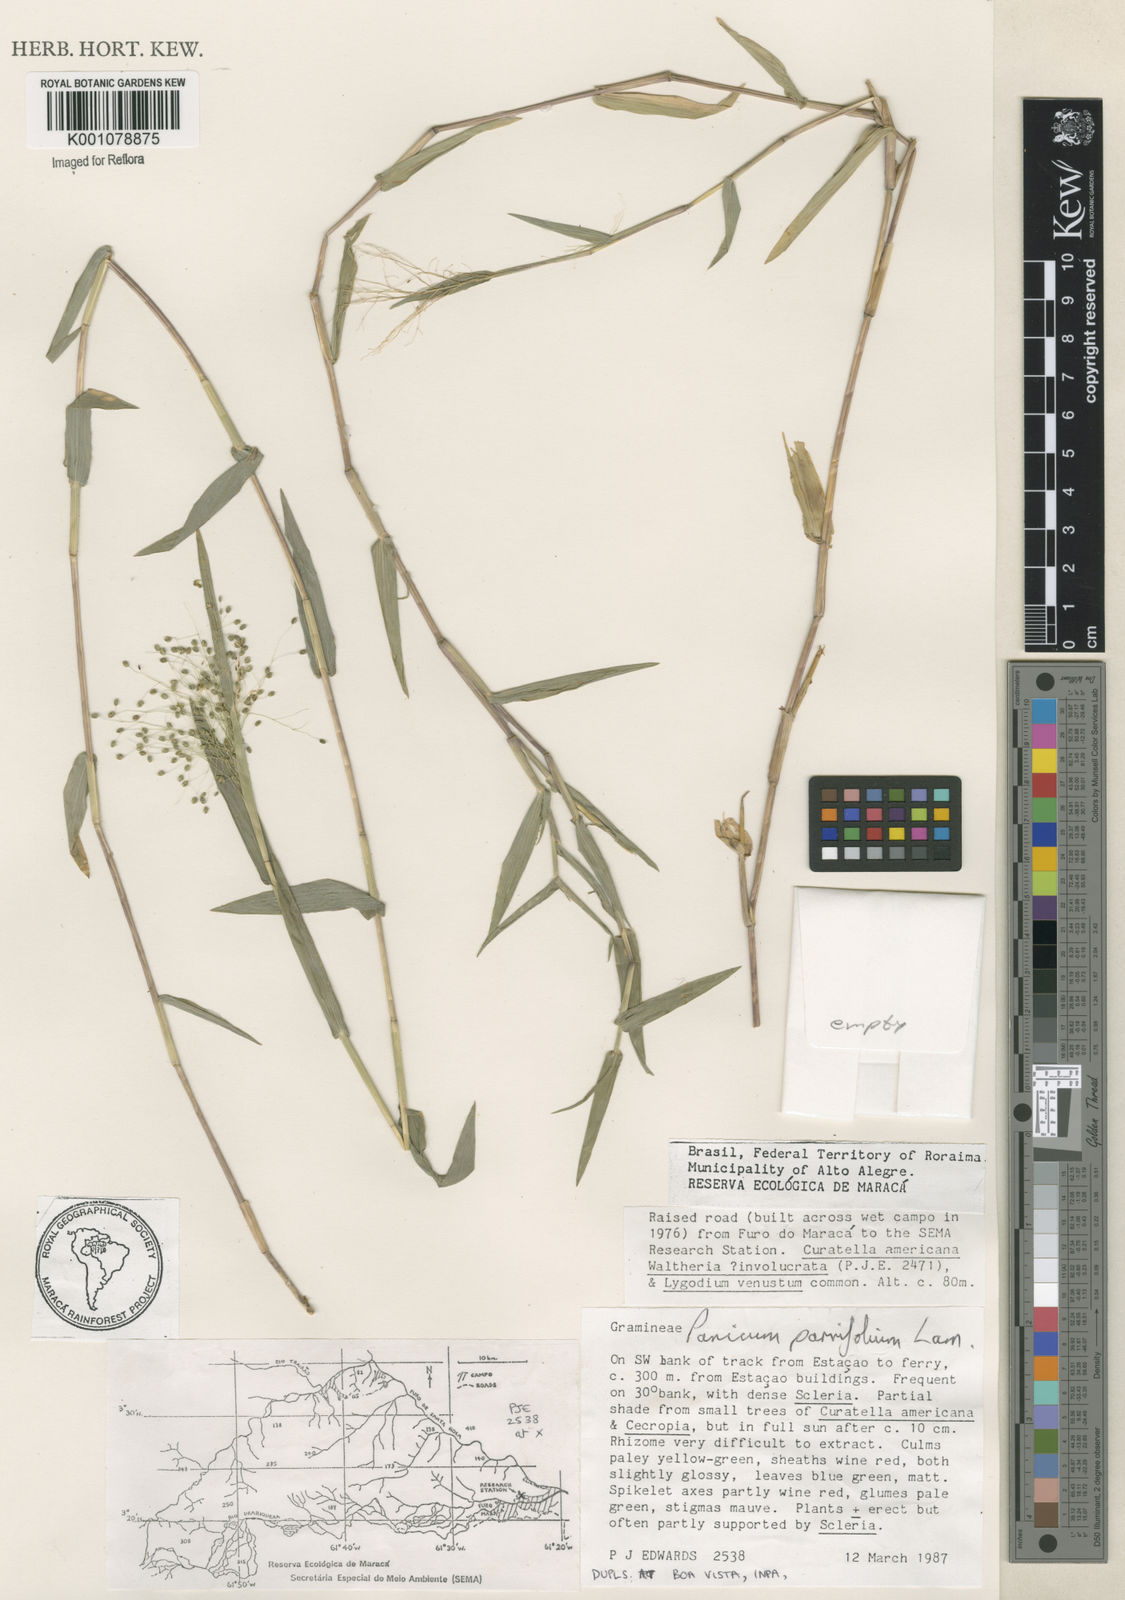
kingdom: Plantae
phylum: Tracheophyta
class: Liliopsida
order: Poales
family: Poaceae
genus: Trichanthecium
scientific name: Trichanthecium parvifolium
